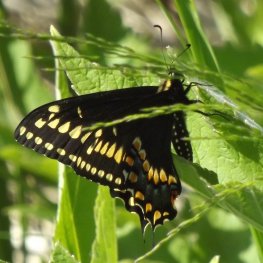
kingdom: Animalia
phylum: Arthropoda
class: Insecta
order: Lepidoptera
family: Papilionidae
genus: Papilio
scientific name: Papilio brevicauda
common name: Short-tailed Swallowtail
